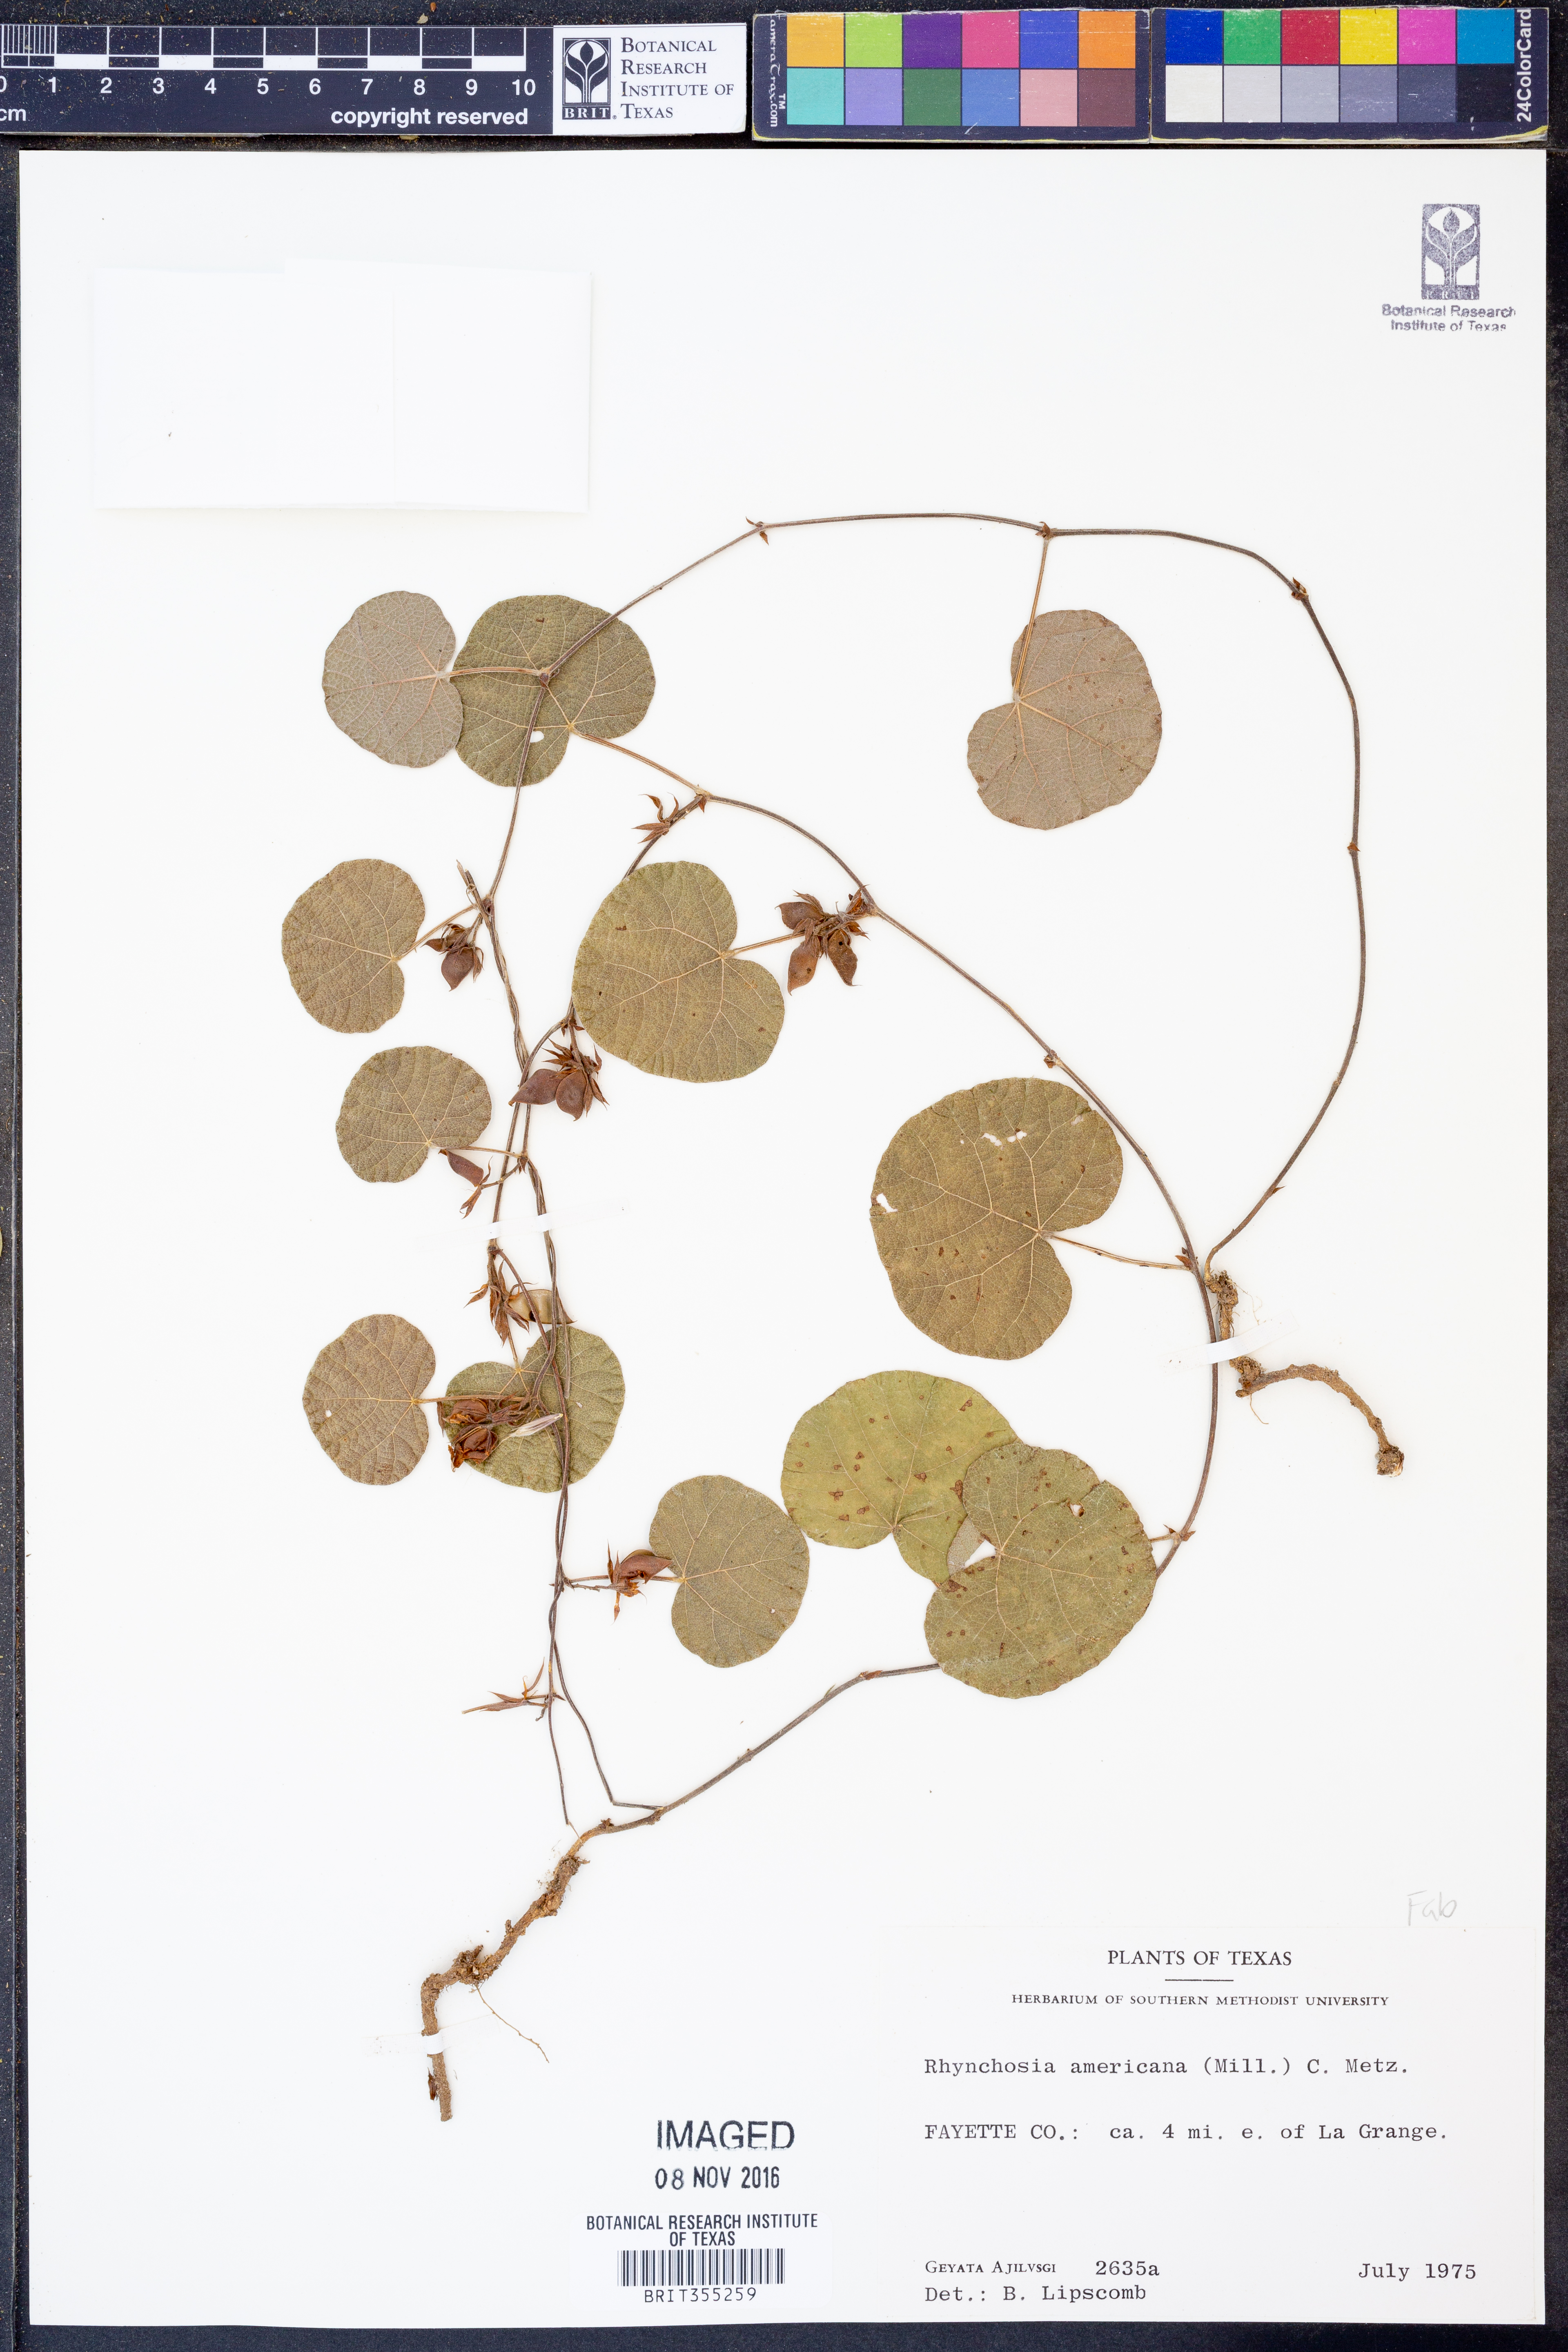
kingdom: Plantae
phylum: Tracheophyta
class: Magnoliopsida
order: Fabales
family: Fabaceae
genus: Rhynchosia
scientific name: Rhynchosia americana
